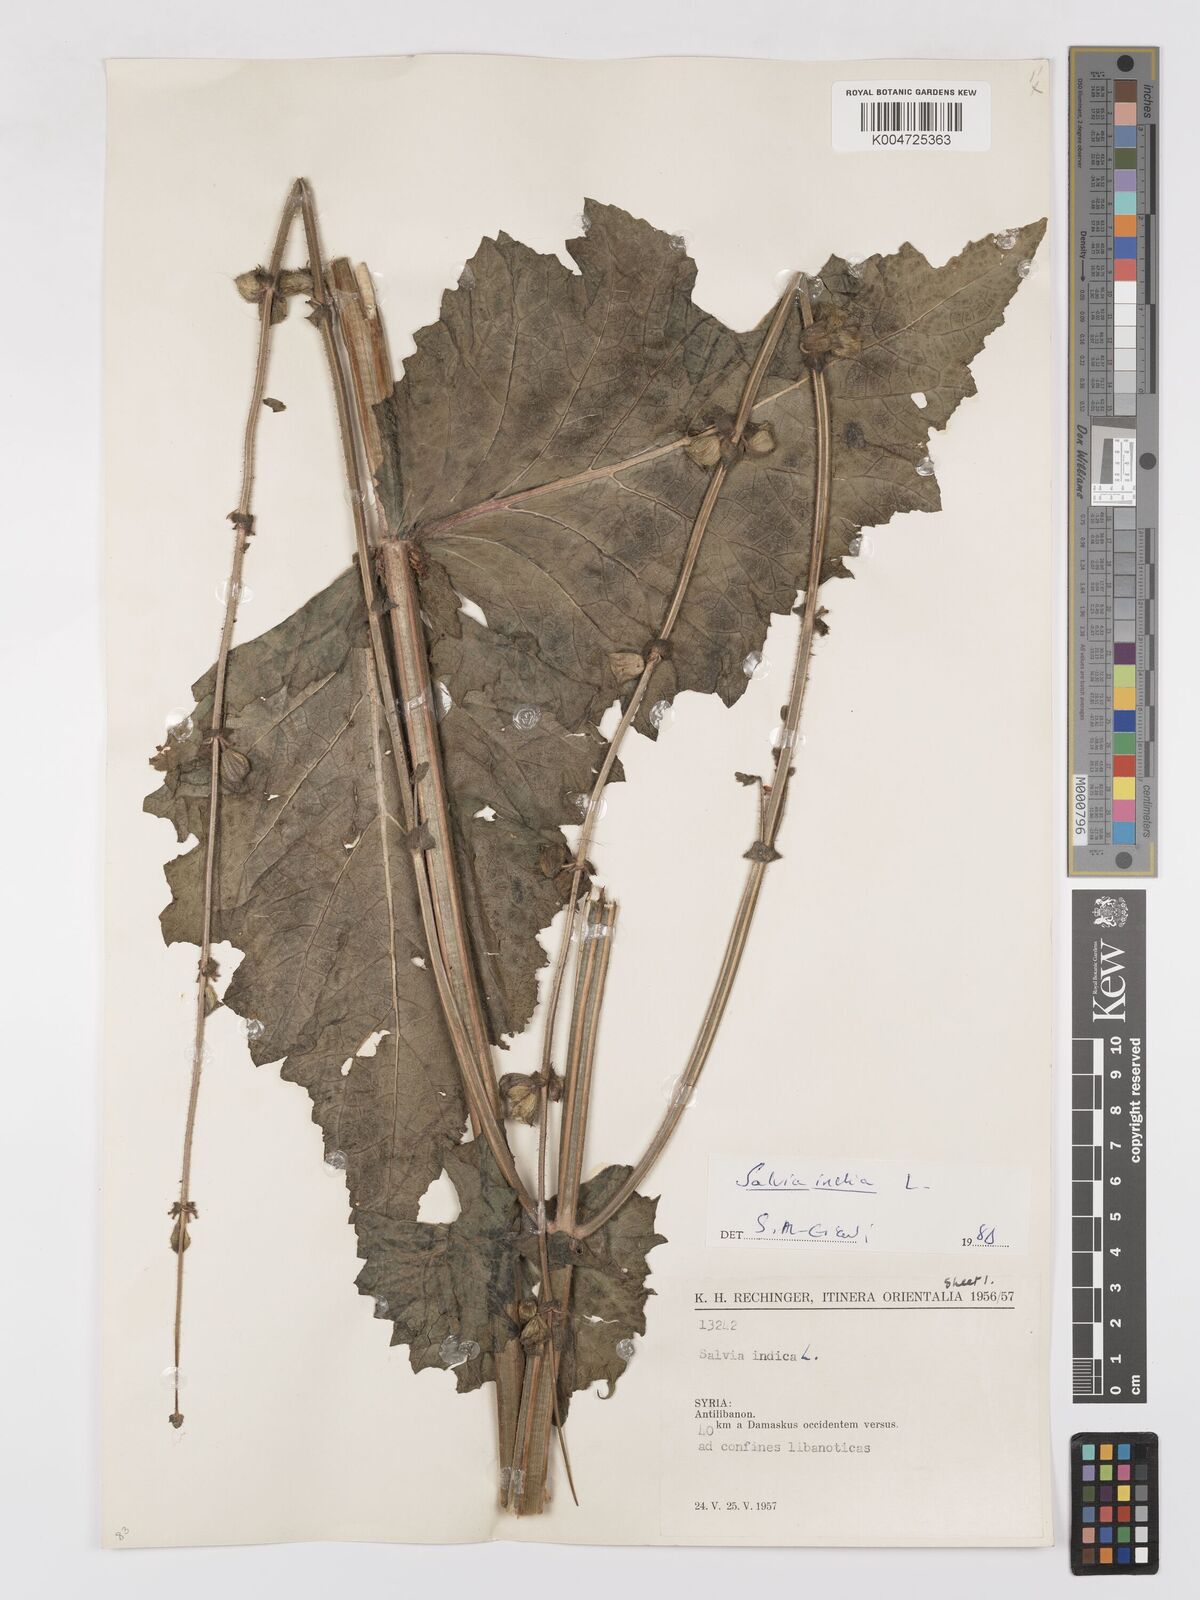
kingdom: Plantae
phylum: Tracheophyta
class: Magnoliopsida
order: Lamiales
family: Lamiaceae
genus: Salvia
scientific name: Salvia indica
